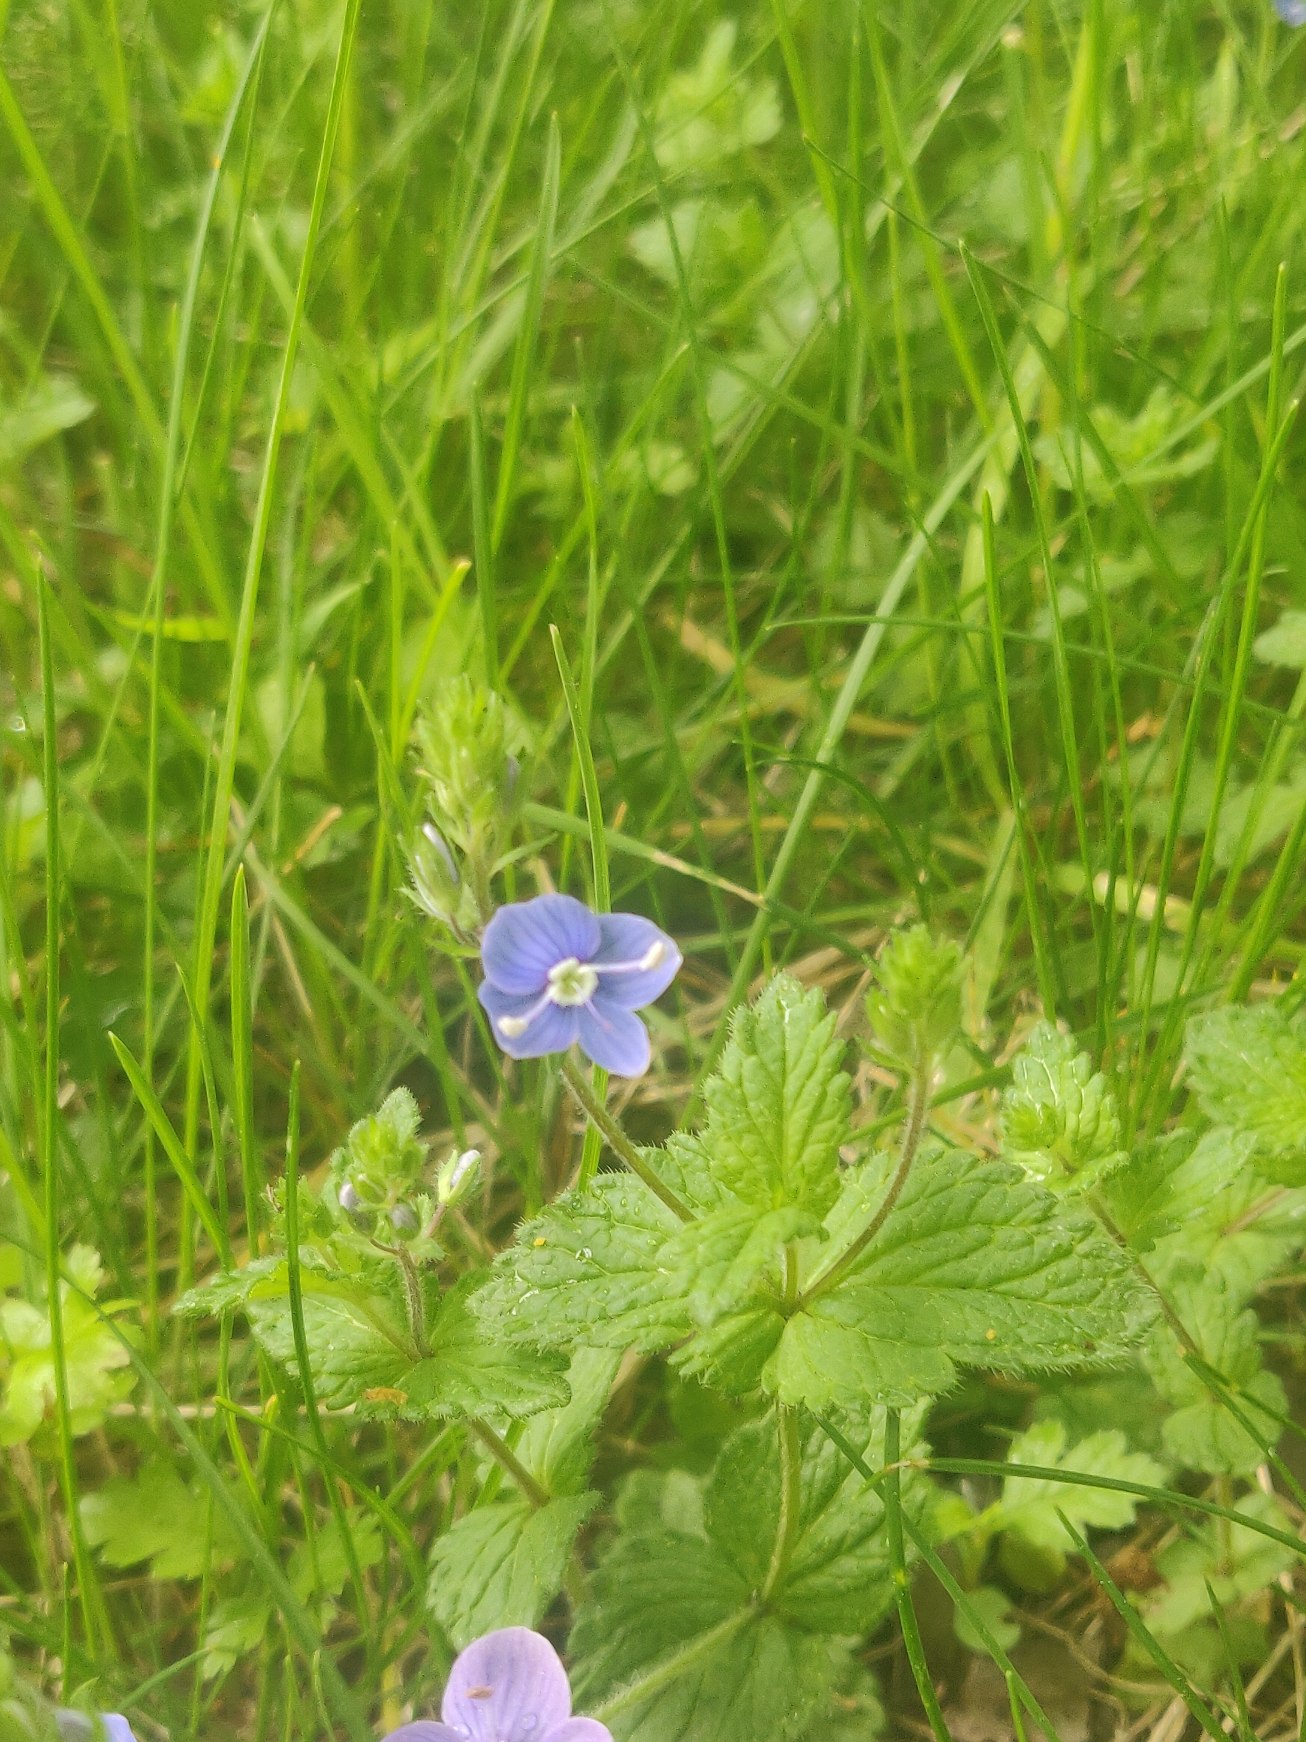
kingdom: Plantae
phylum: Tracheophyta
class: Magnoliopsida
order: Lamiales
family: Plantaginaceae
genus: Veronica
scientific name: Veronica chamaedrys
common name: Tveskægget ærenpris
